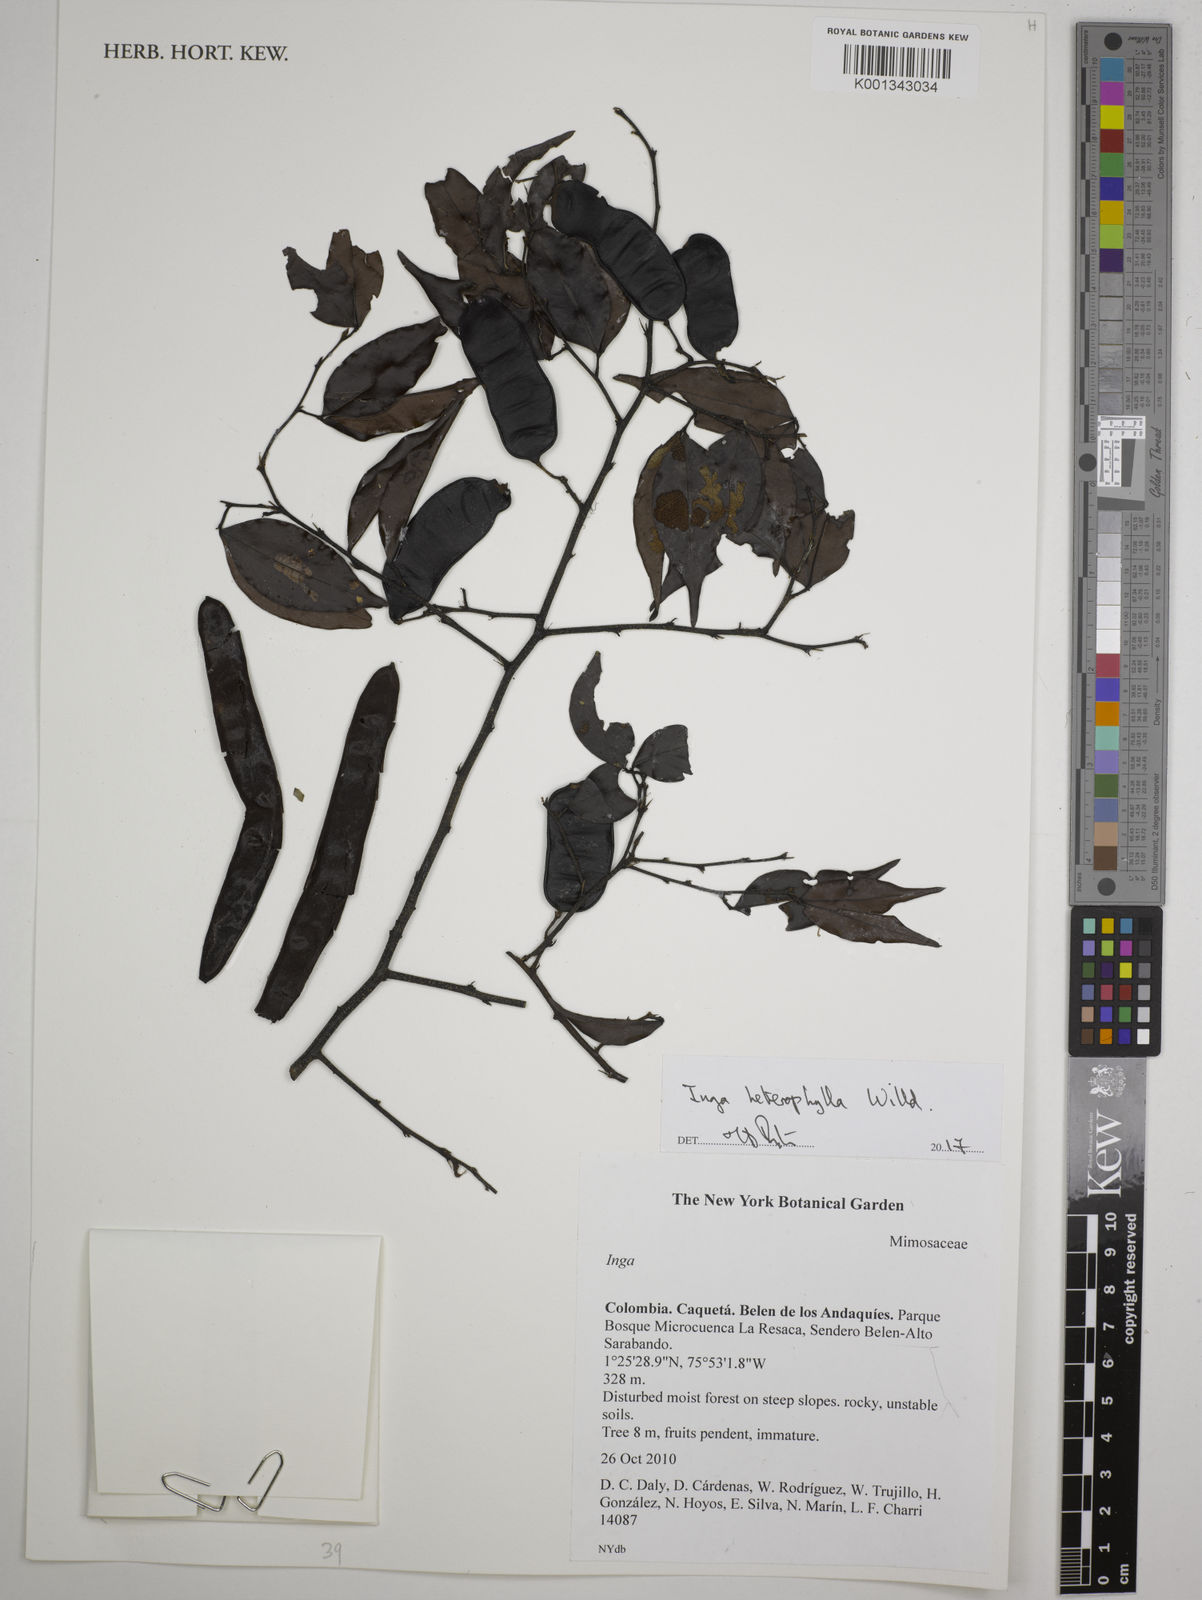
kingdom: Plantae
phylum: Tracheophyta
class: Magnoliopsida
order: Fabales
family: Fabaceae
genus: Inga
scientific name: Inga heterophylla
